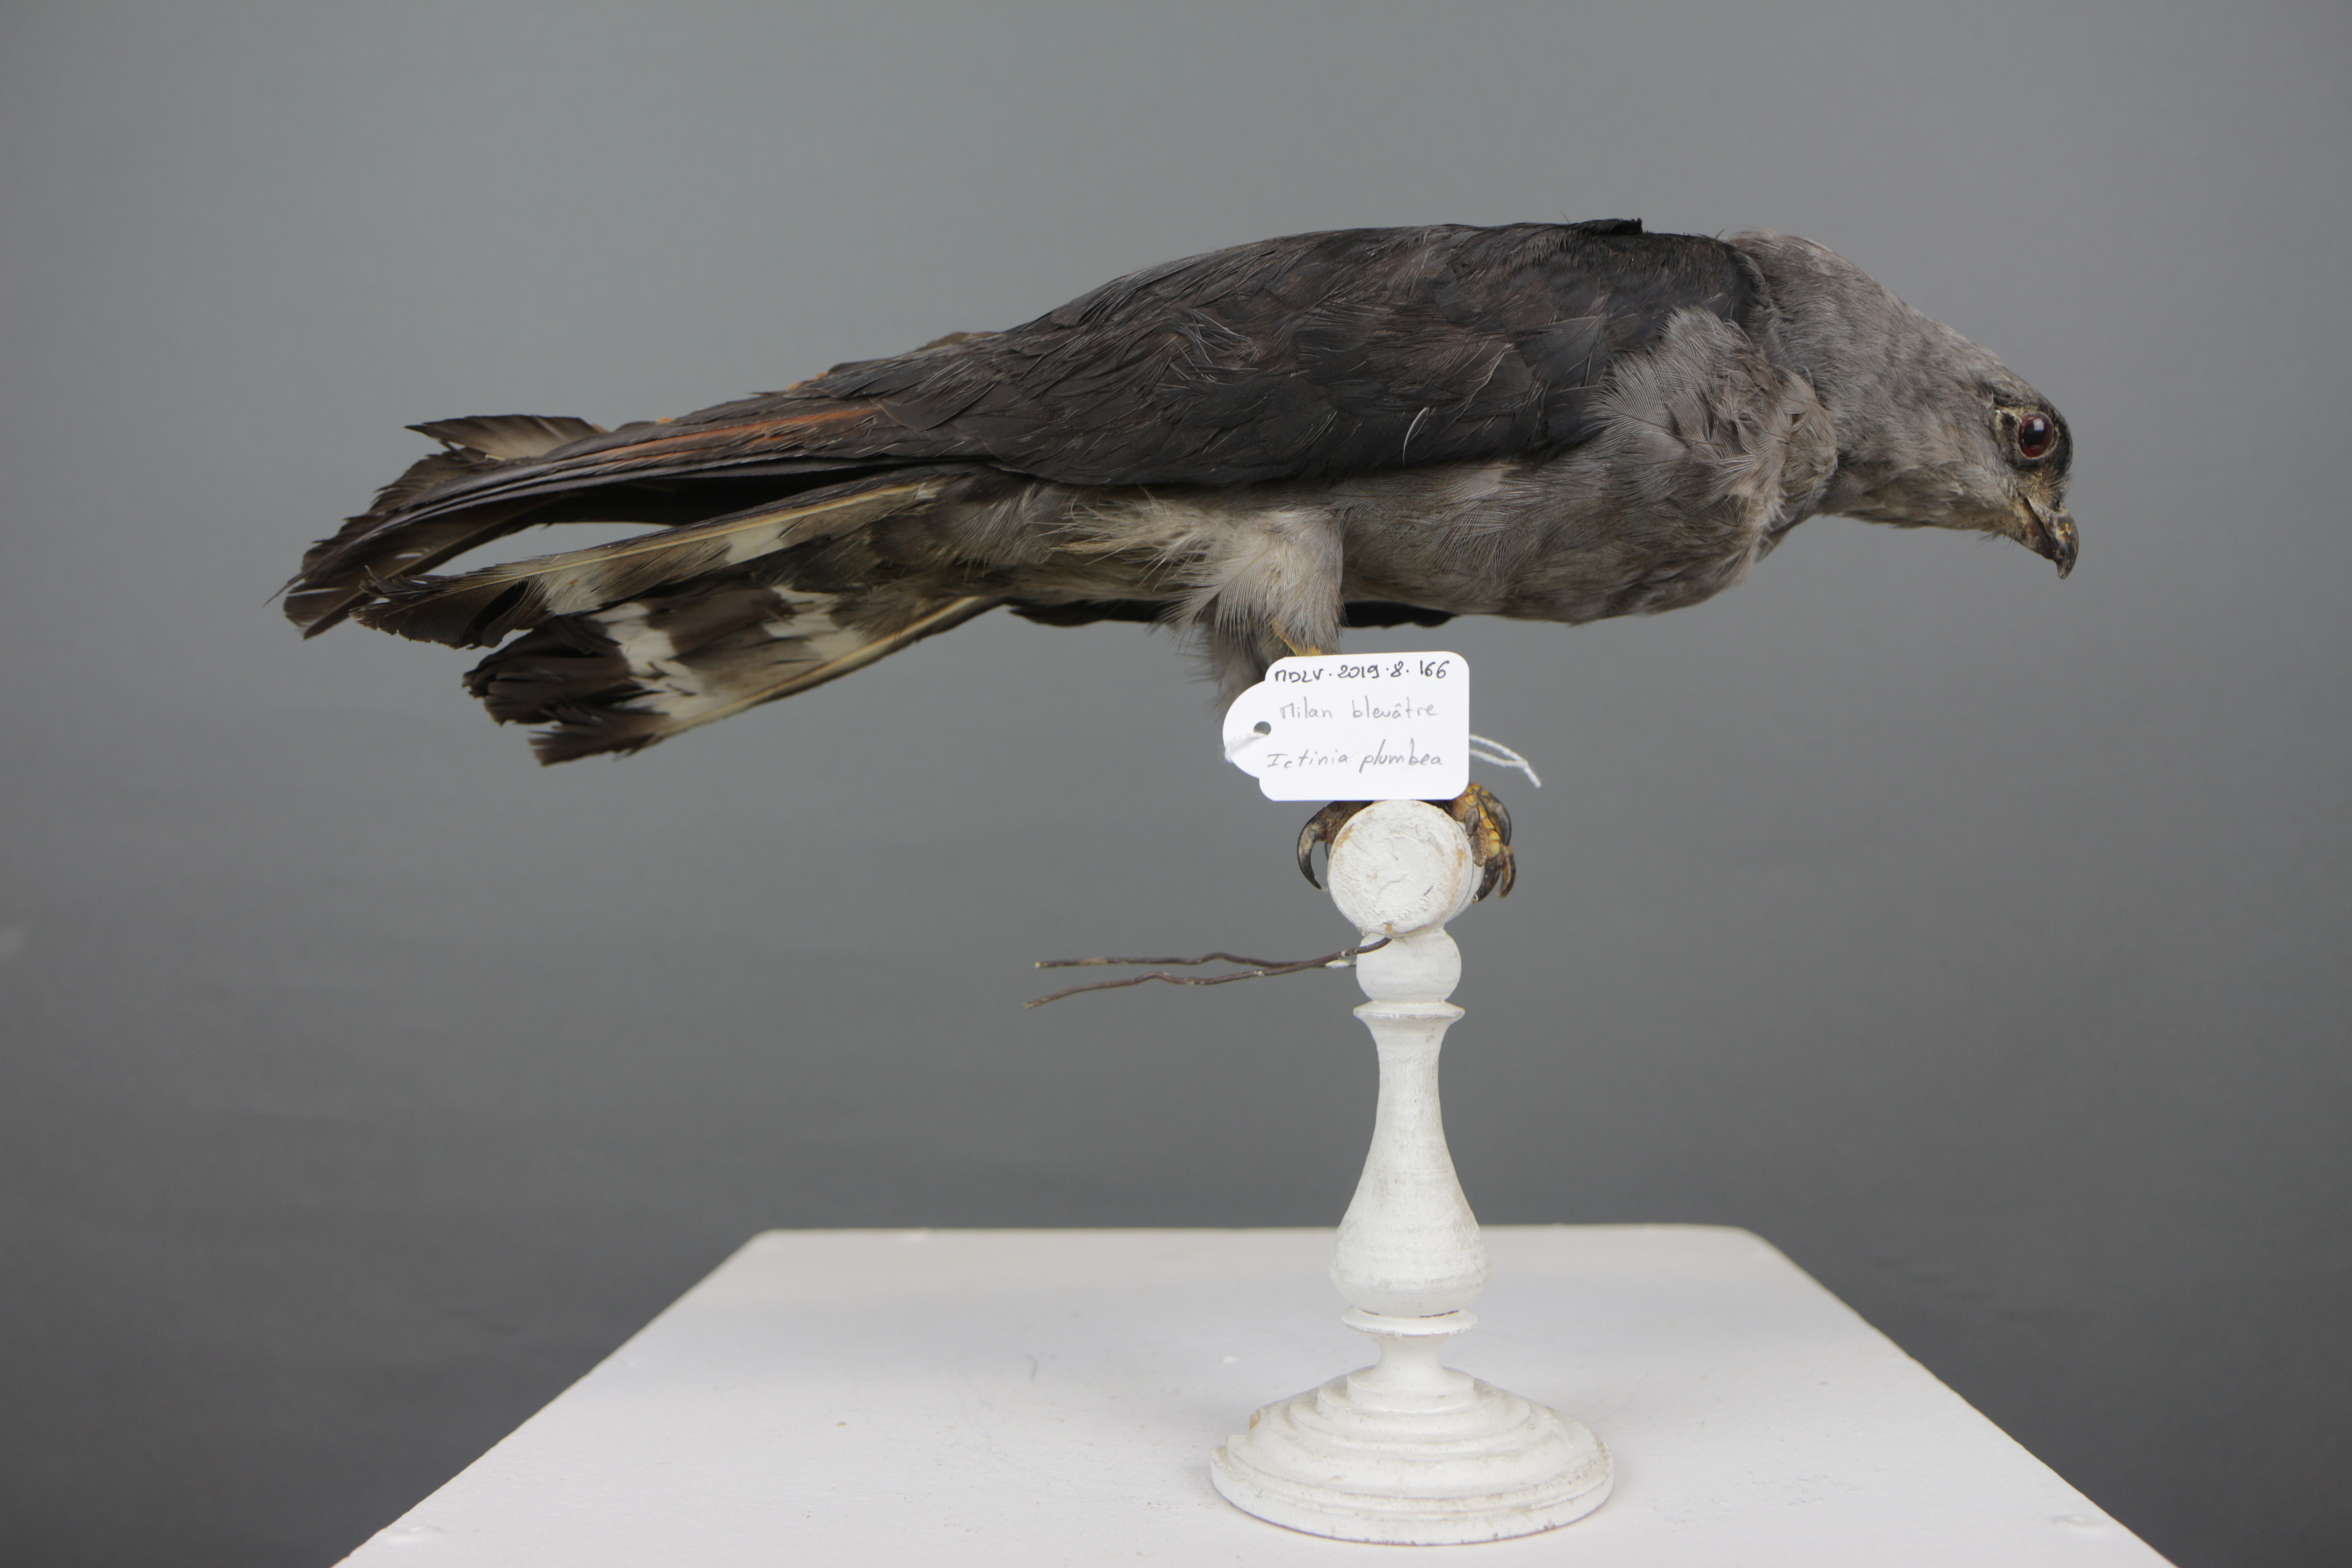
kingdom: Animalia
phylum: Chordata
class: Aves
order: Accipitriformes
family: Accipitridae
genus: Ictinia
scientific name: Ictinia plumbea
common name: Plumbeous kite
